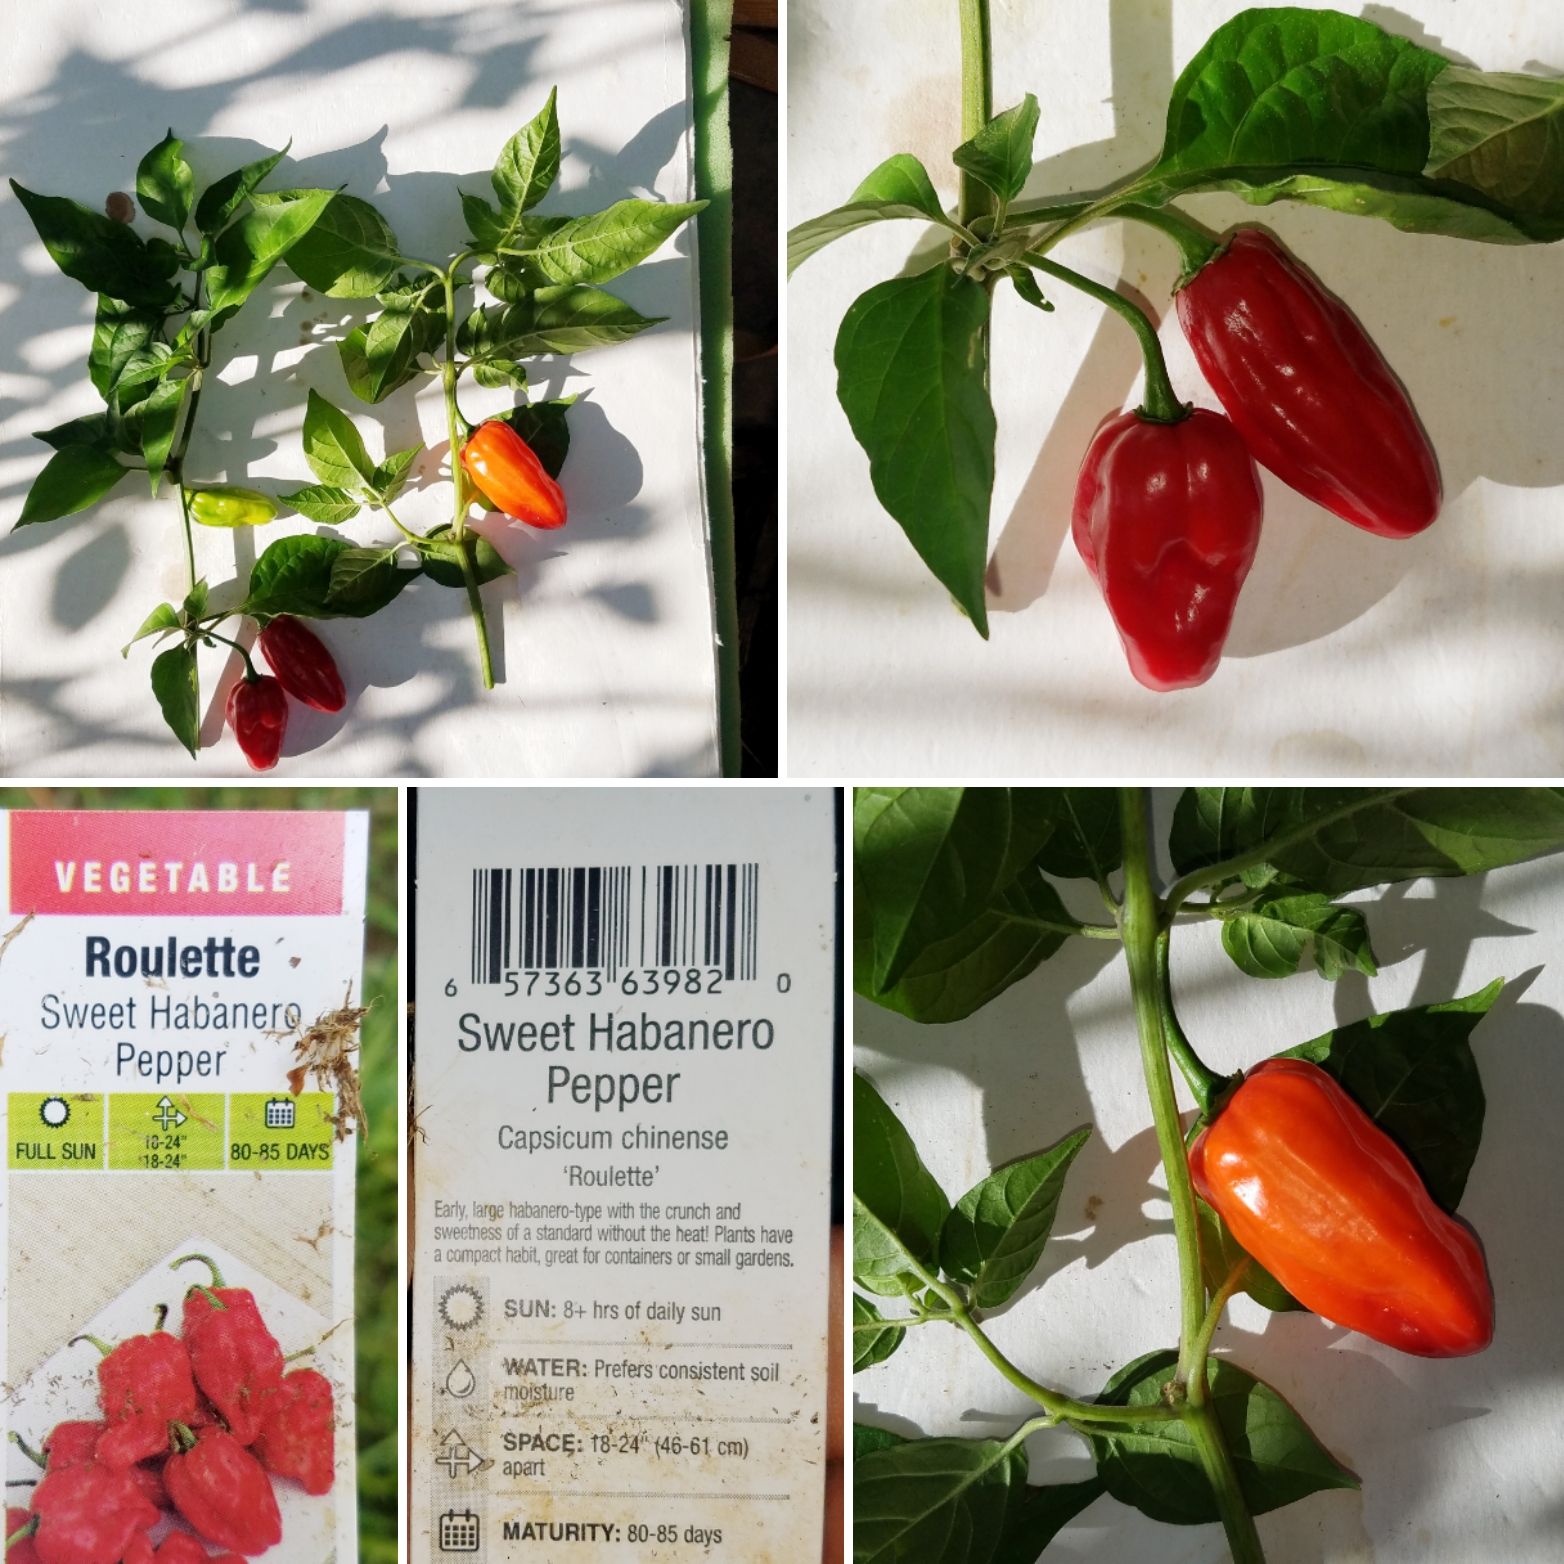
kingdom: Plantae
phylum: Tracheophyta
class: Magnoliopsida
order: Solanales
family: Solanaceae
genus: Capsicum
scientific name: Capsicum chinense
